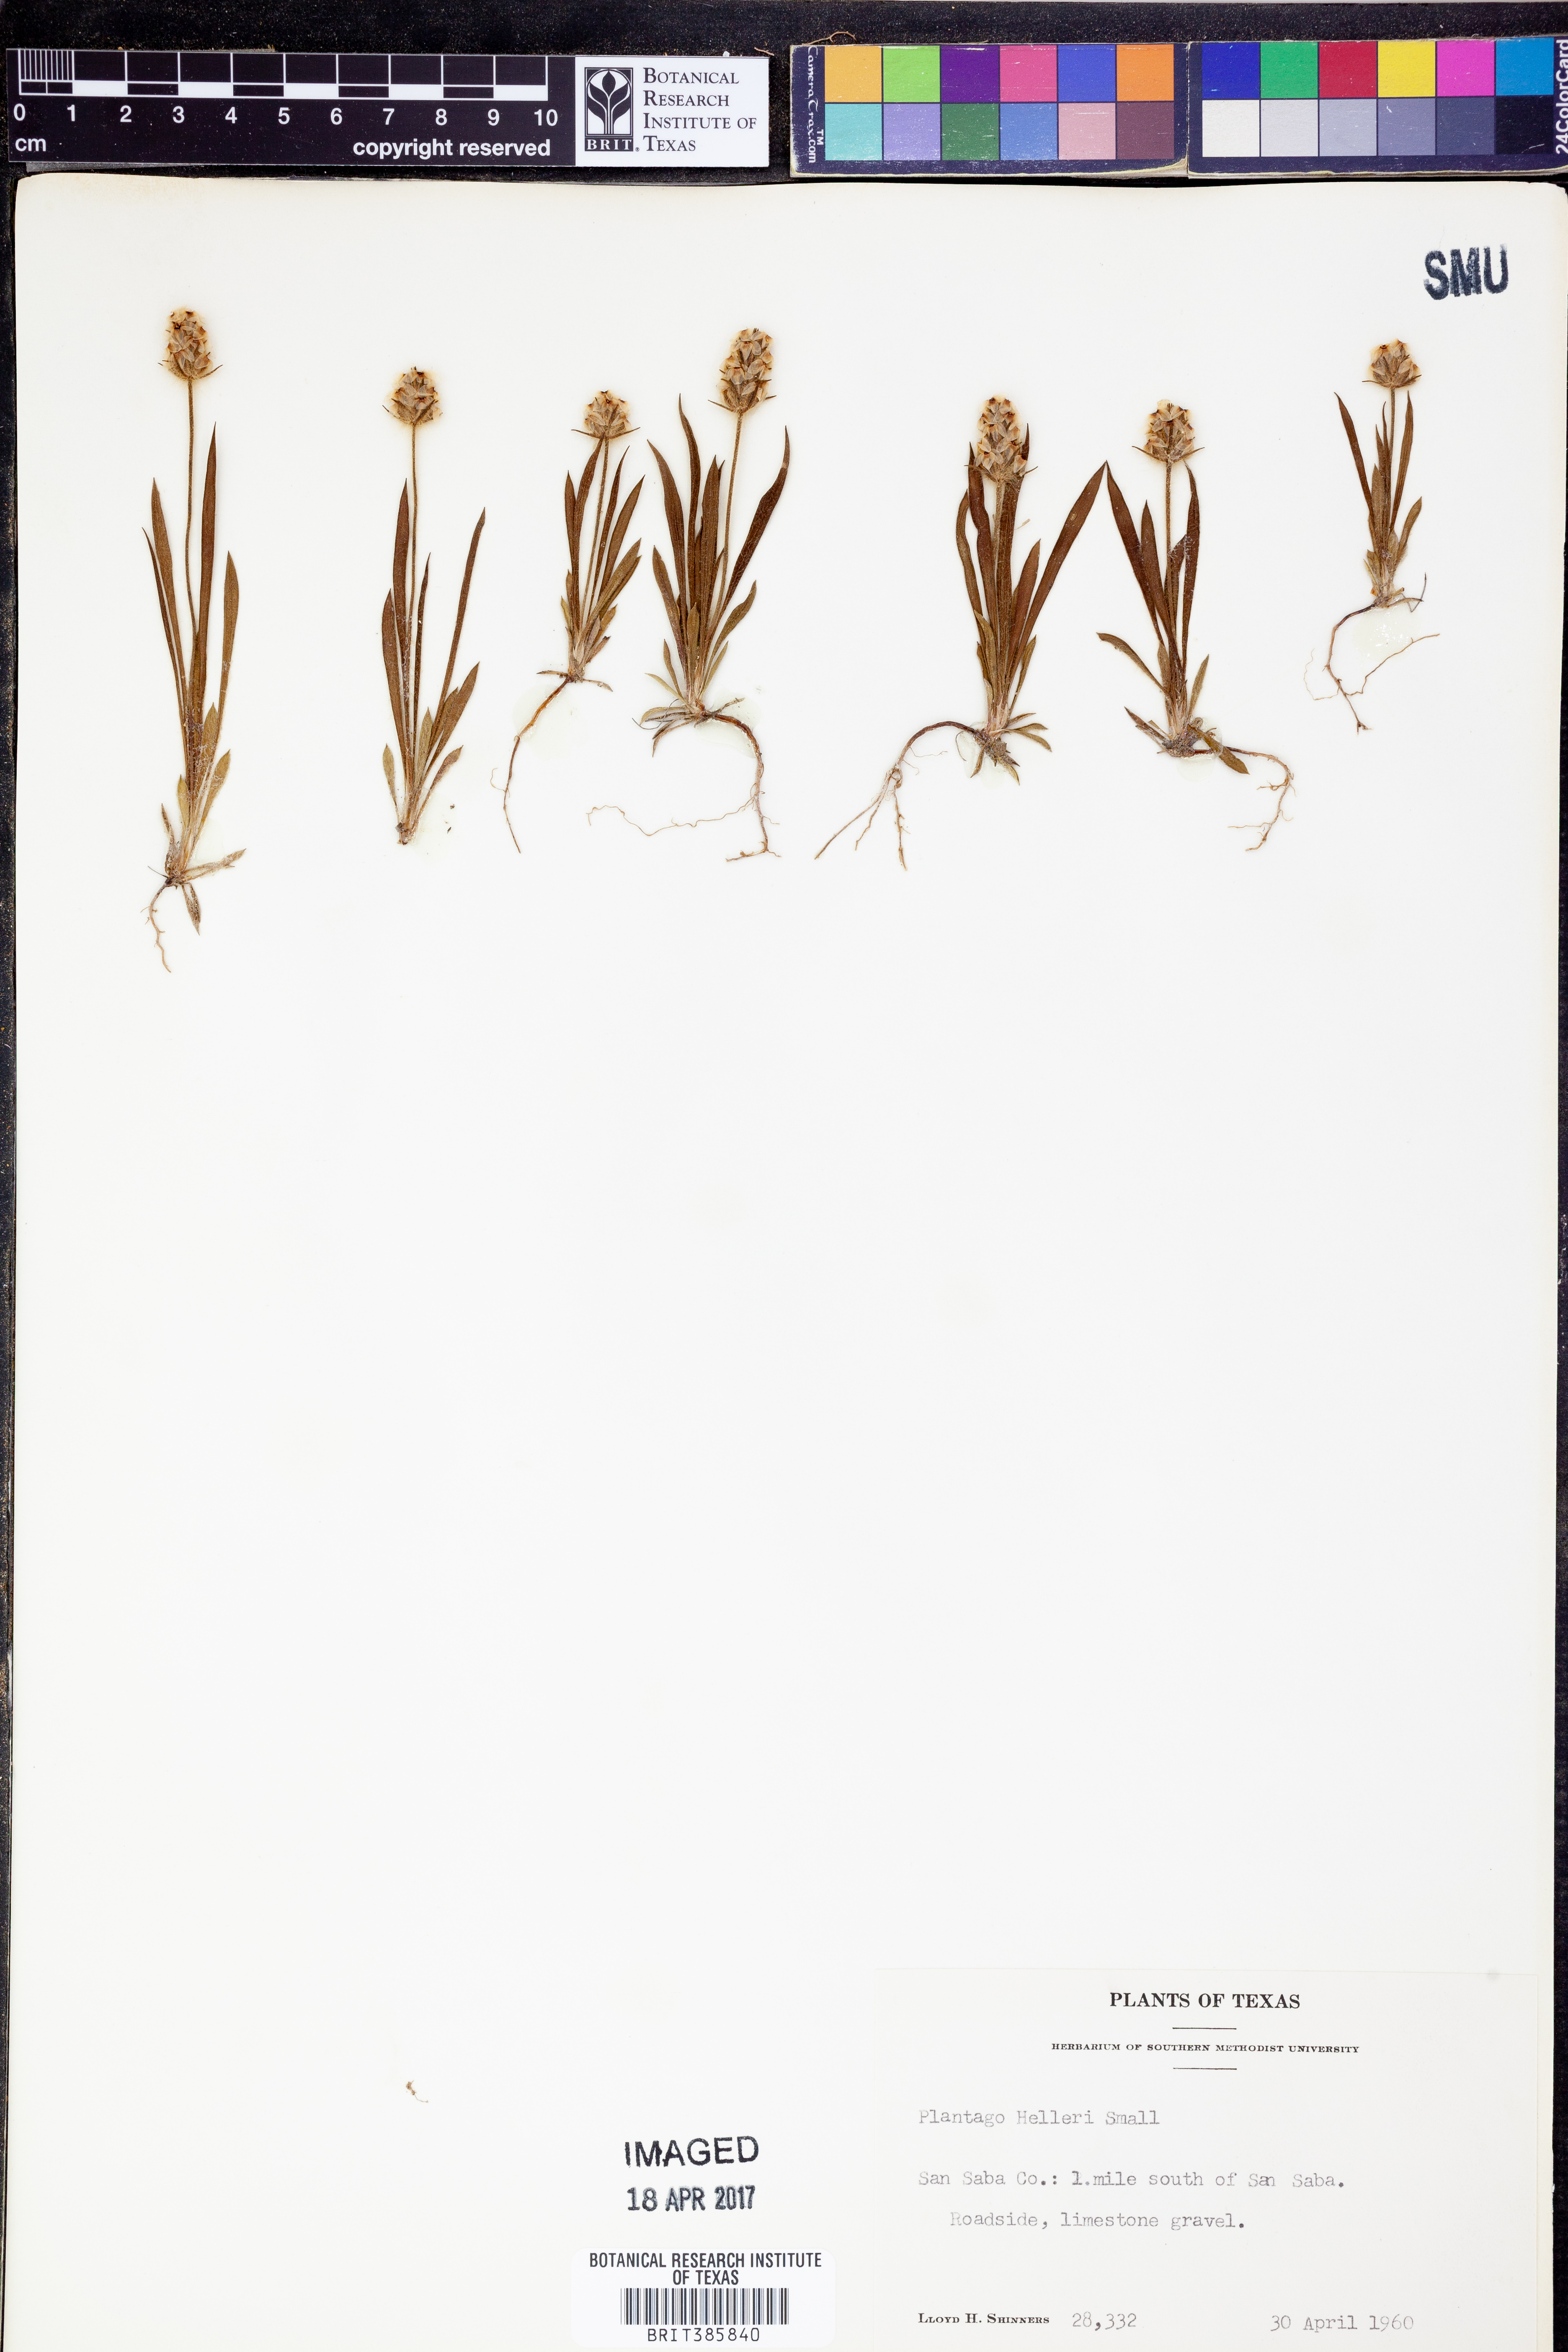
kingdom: Plantae
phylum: Tracheophyta
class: Magnoliopsida
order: Lamiales
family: Plantaginaceae
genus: Plantago
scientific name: Plantago helleri
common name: Heller's plantain
